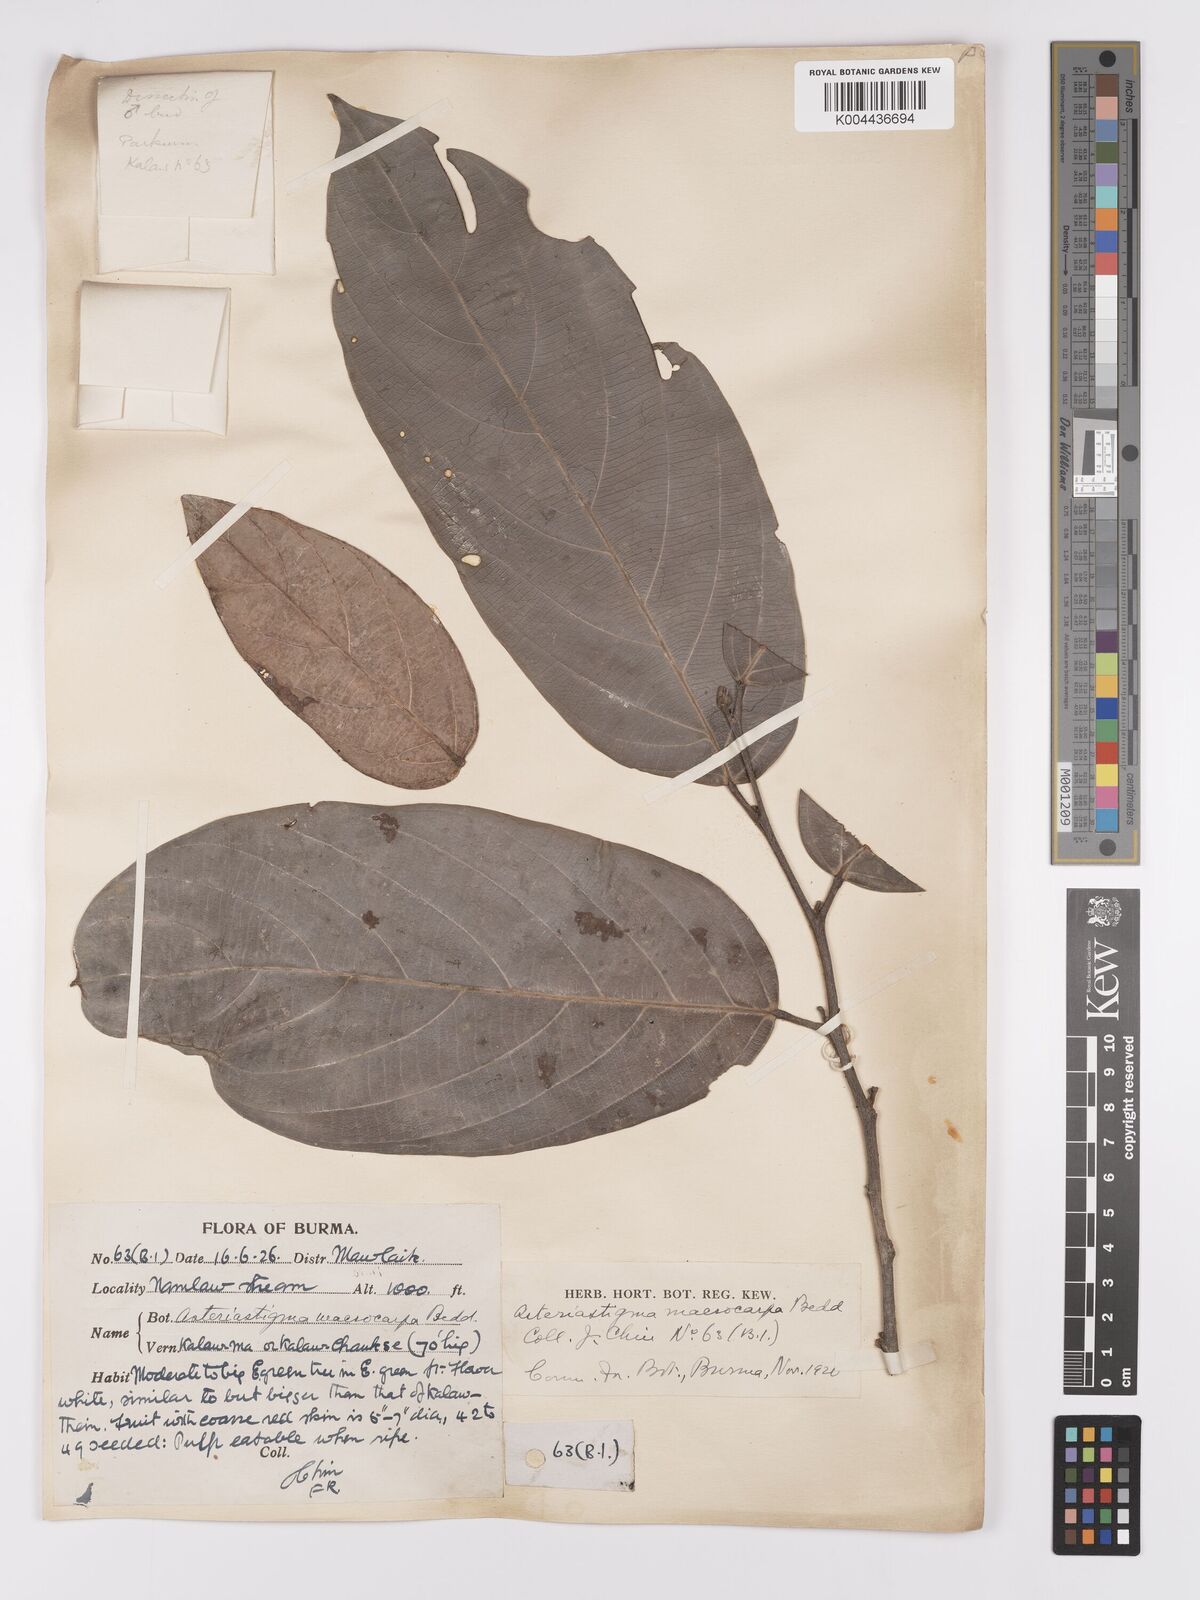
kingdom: Plantae
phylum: Tracheophyta
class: Magnoliopsida
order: Malpighiales
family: Achariaceae
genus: Hydnocarpus
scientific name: Hydnocarpus macrocarpus
